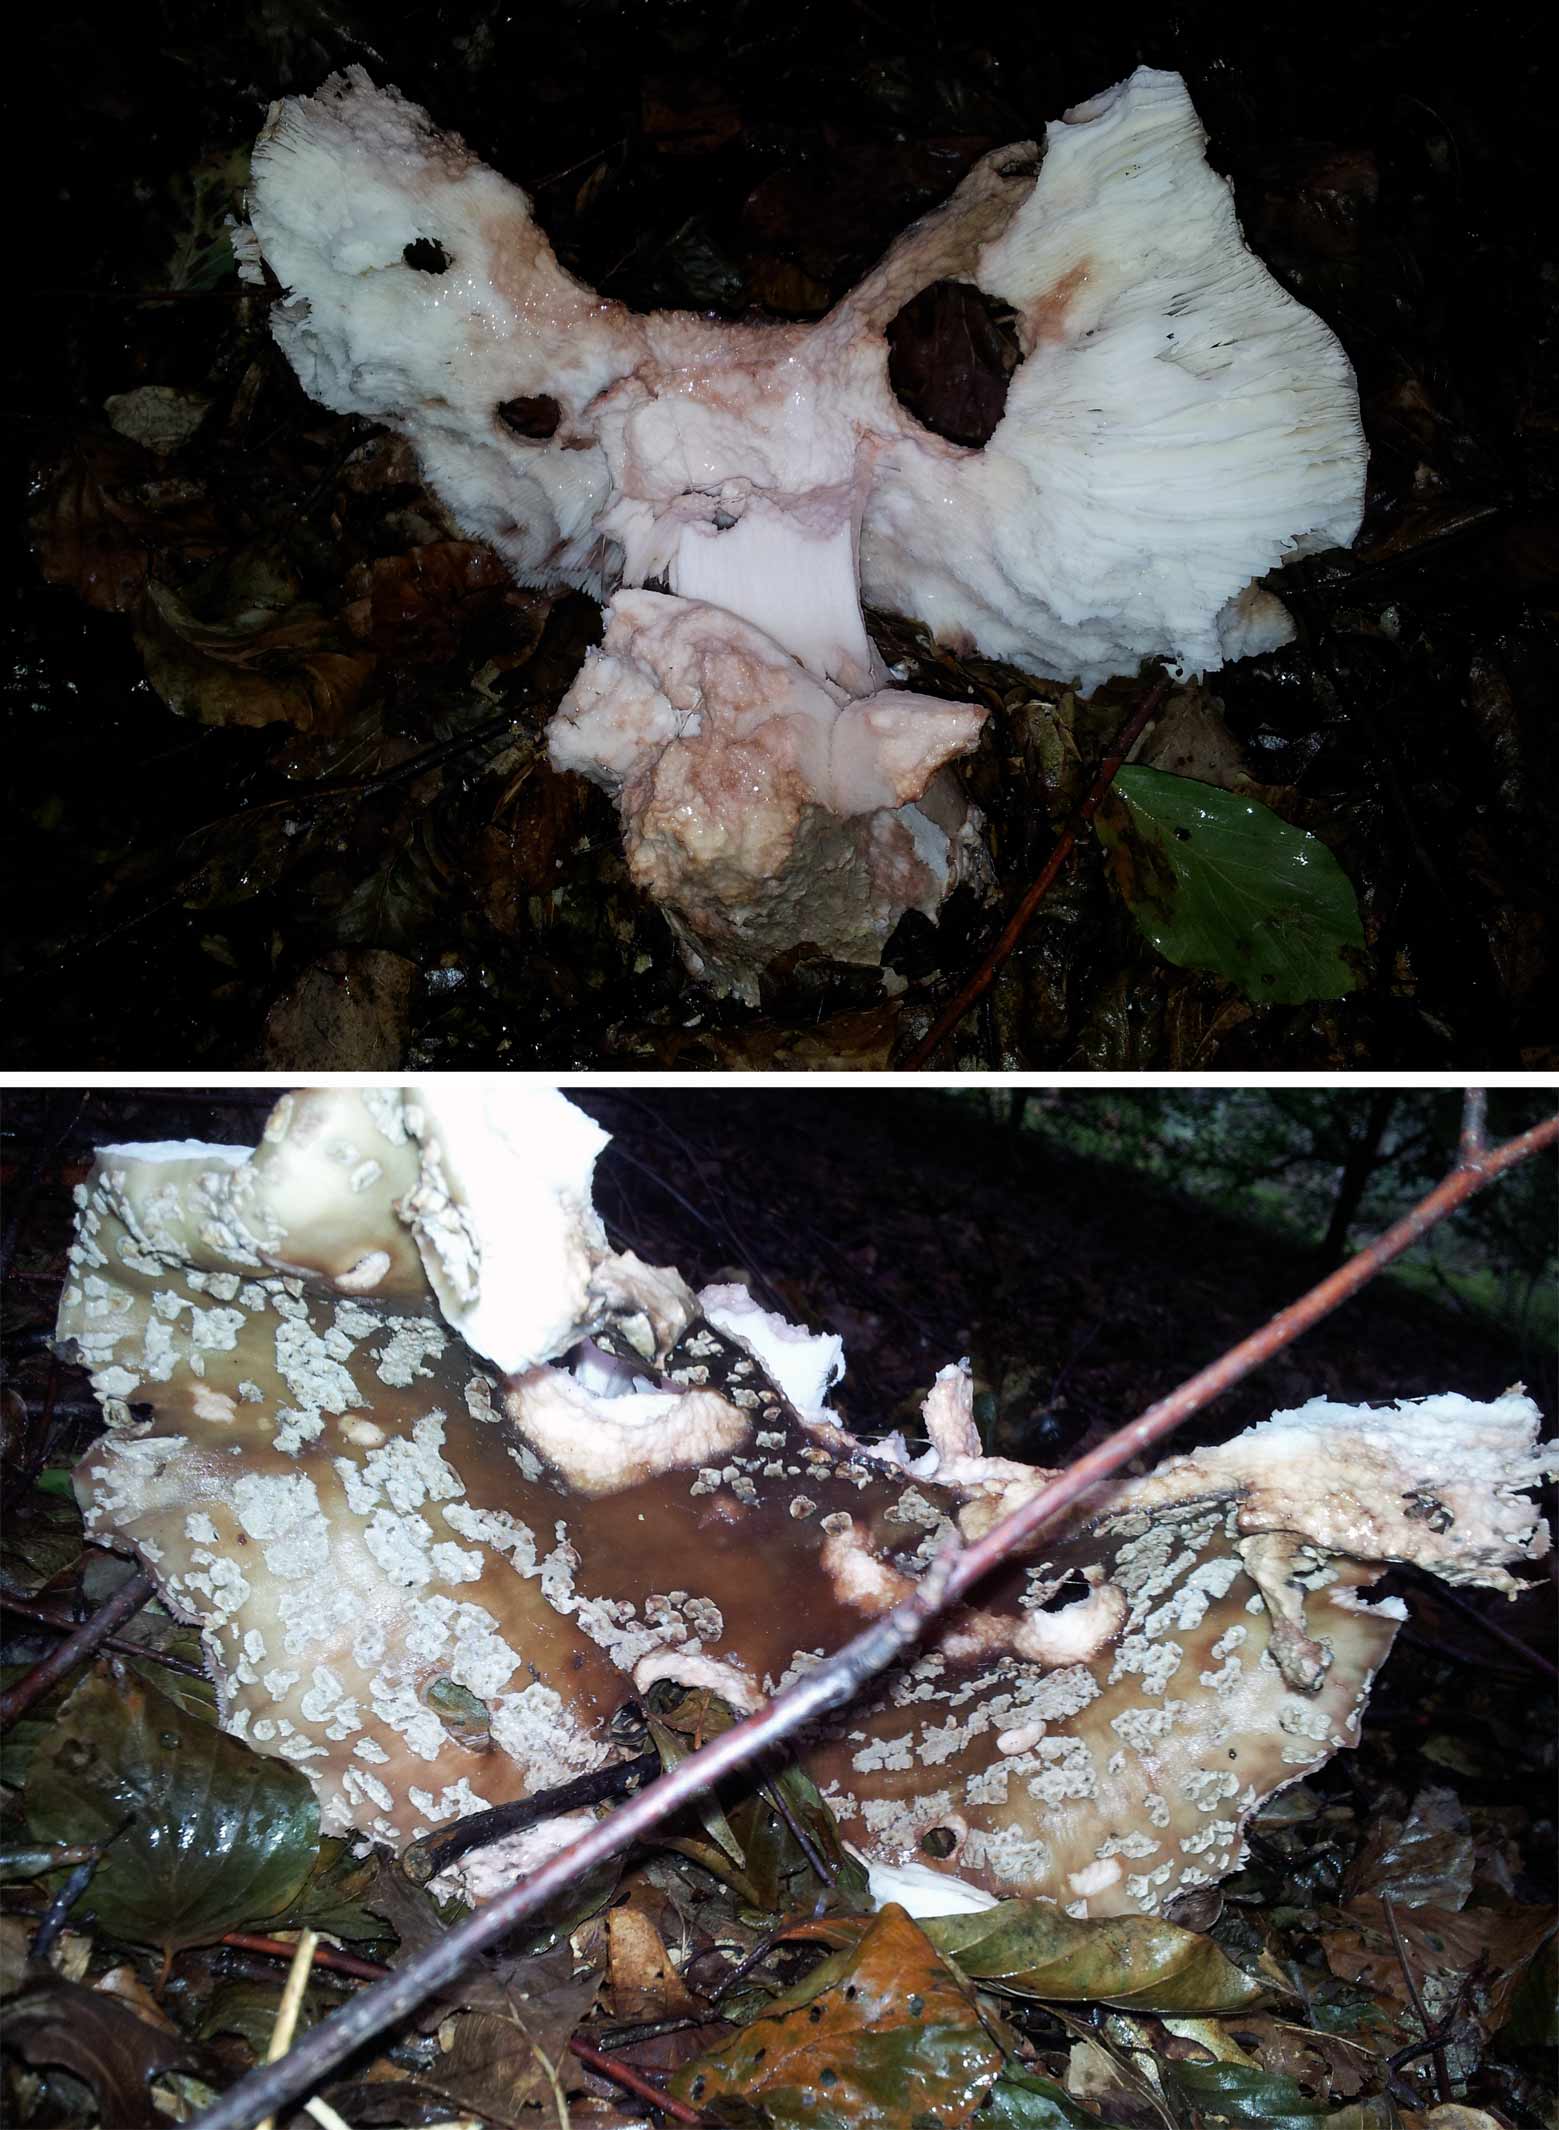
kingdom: Fungi
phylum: Basidiomycota
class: Agaricomycetes
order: Agaricales
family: Amanitaceae
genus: Amanita
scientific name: Amanita rubescens
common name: rødmende fluesvamp
